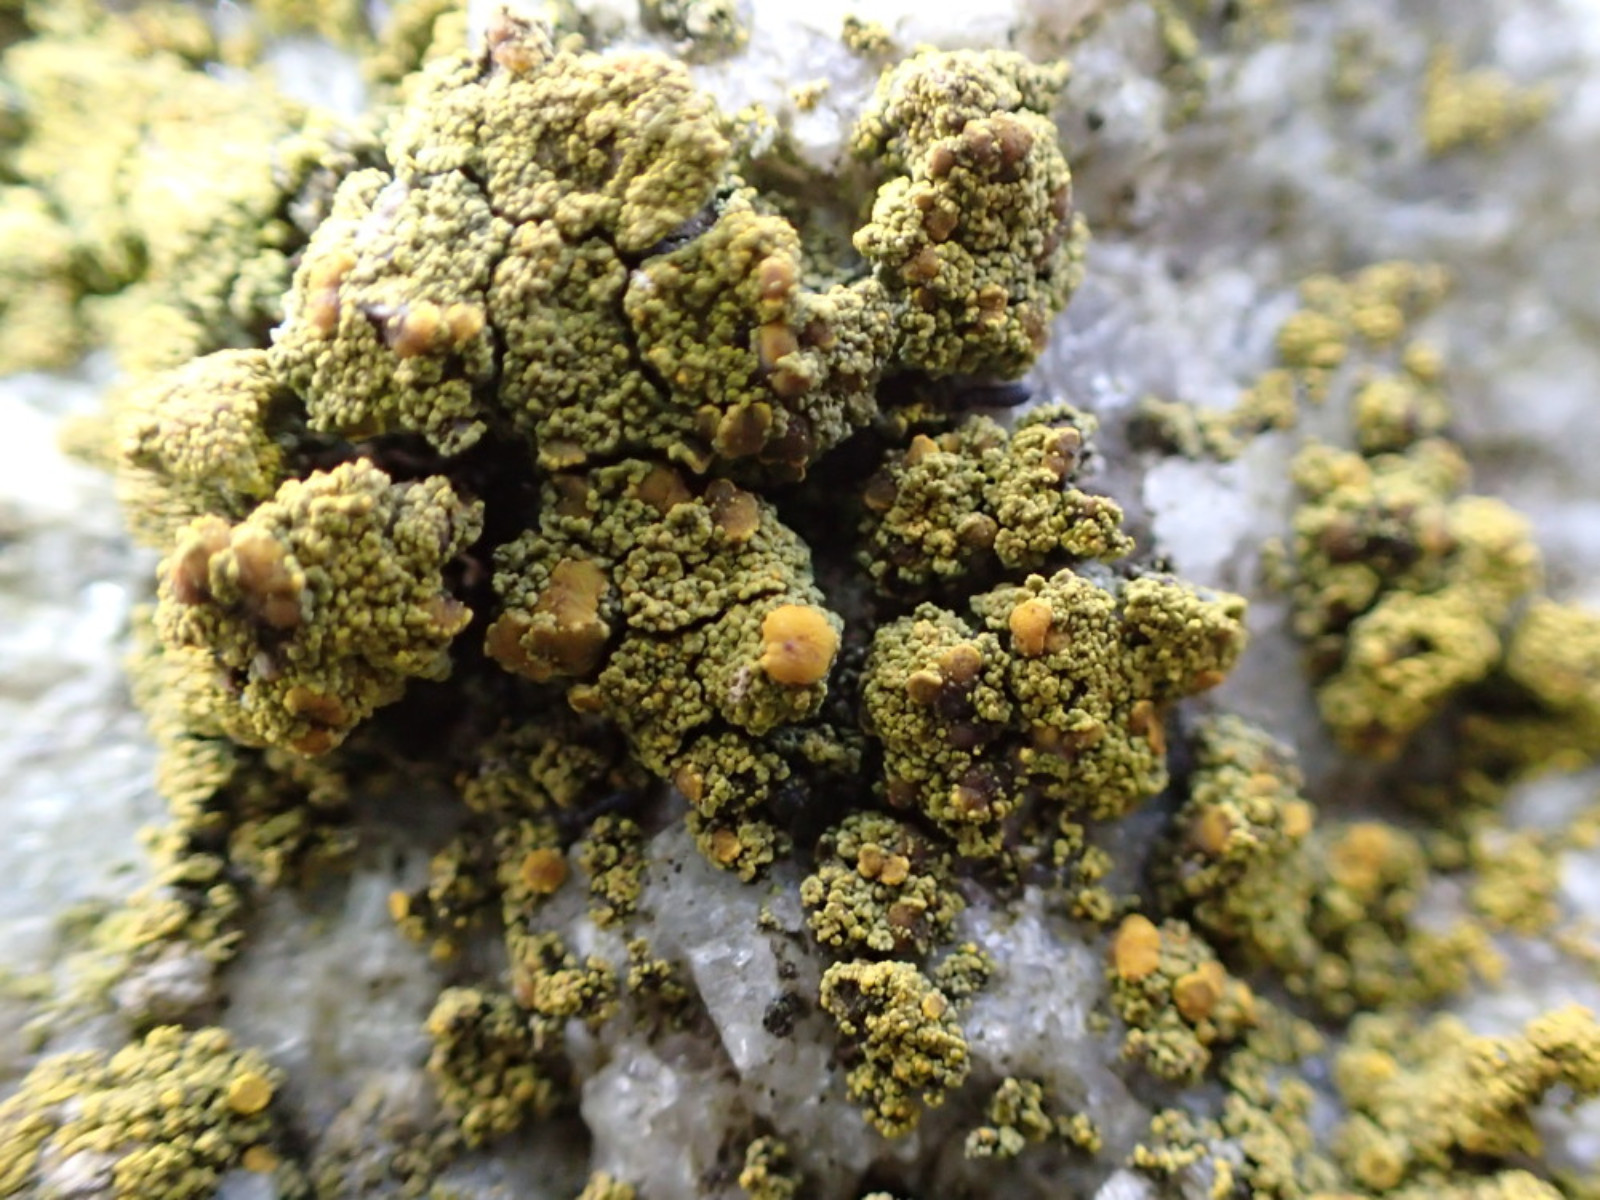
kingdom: Fungi
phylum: Ascomycota
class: Candelariomycetes
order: Candelariales
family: Candelariaceae
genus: Candelariella
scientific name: Candelariella vitellina
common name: almindelig æggeblommelav
